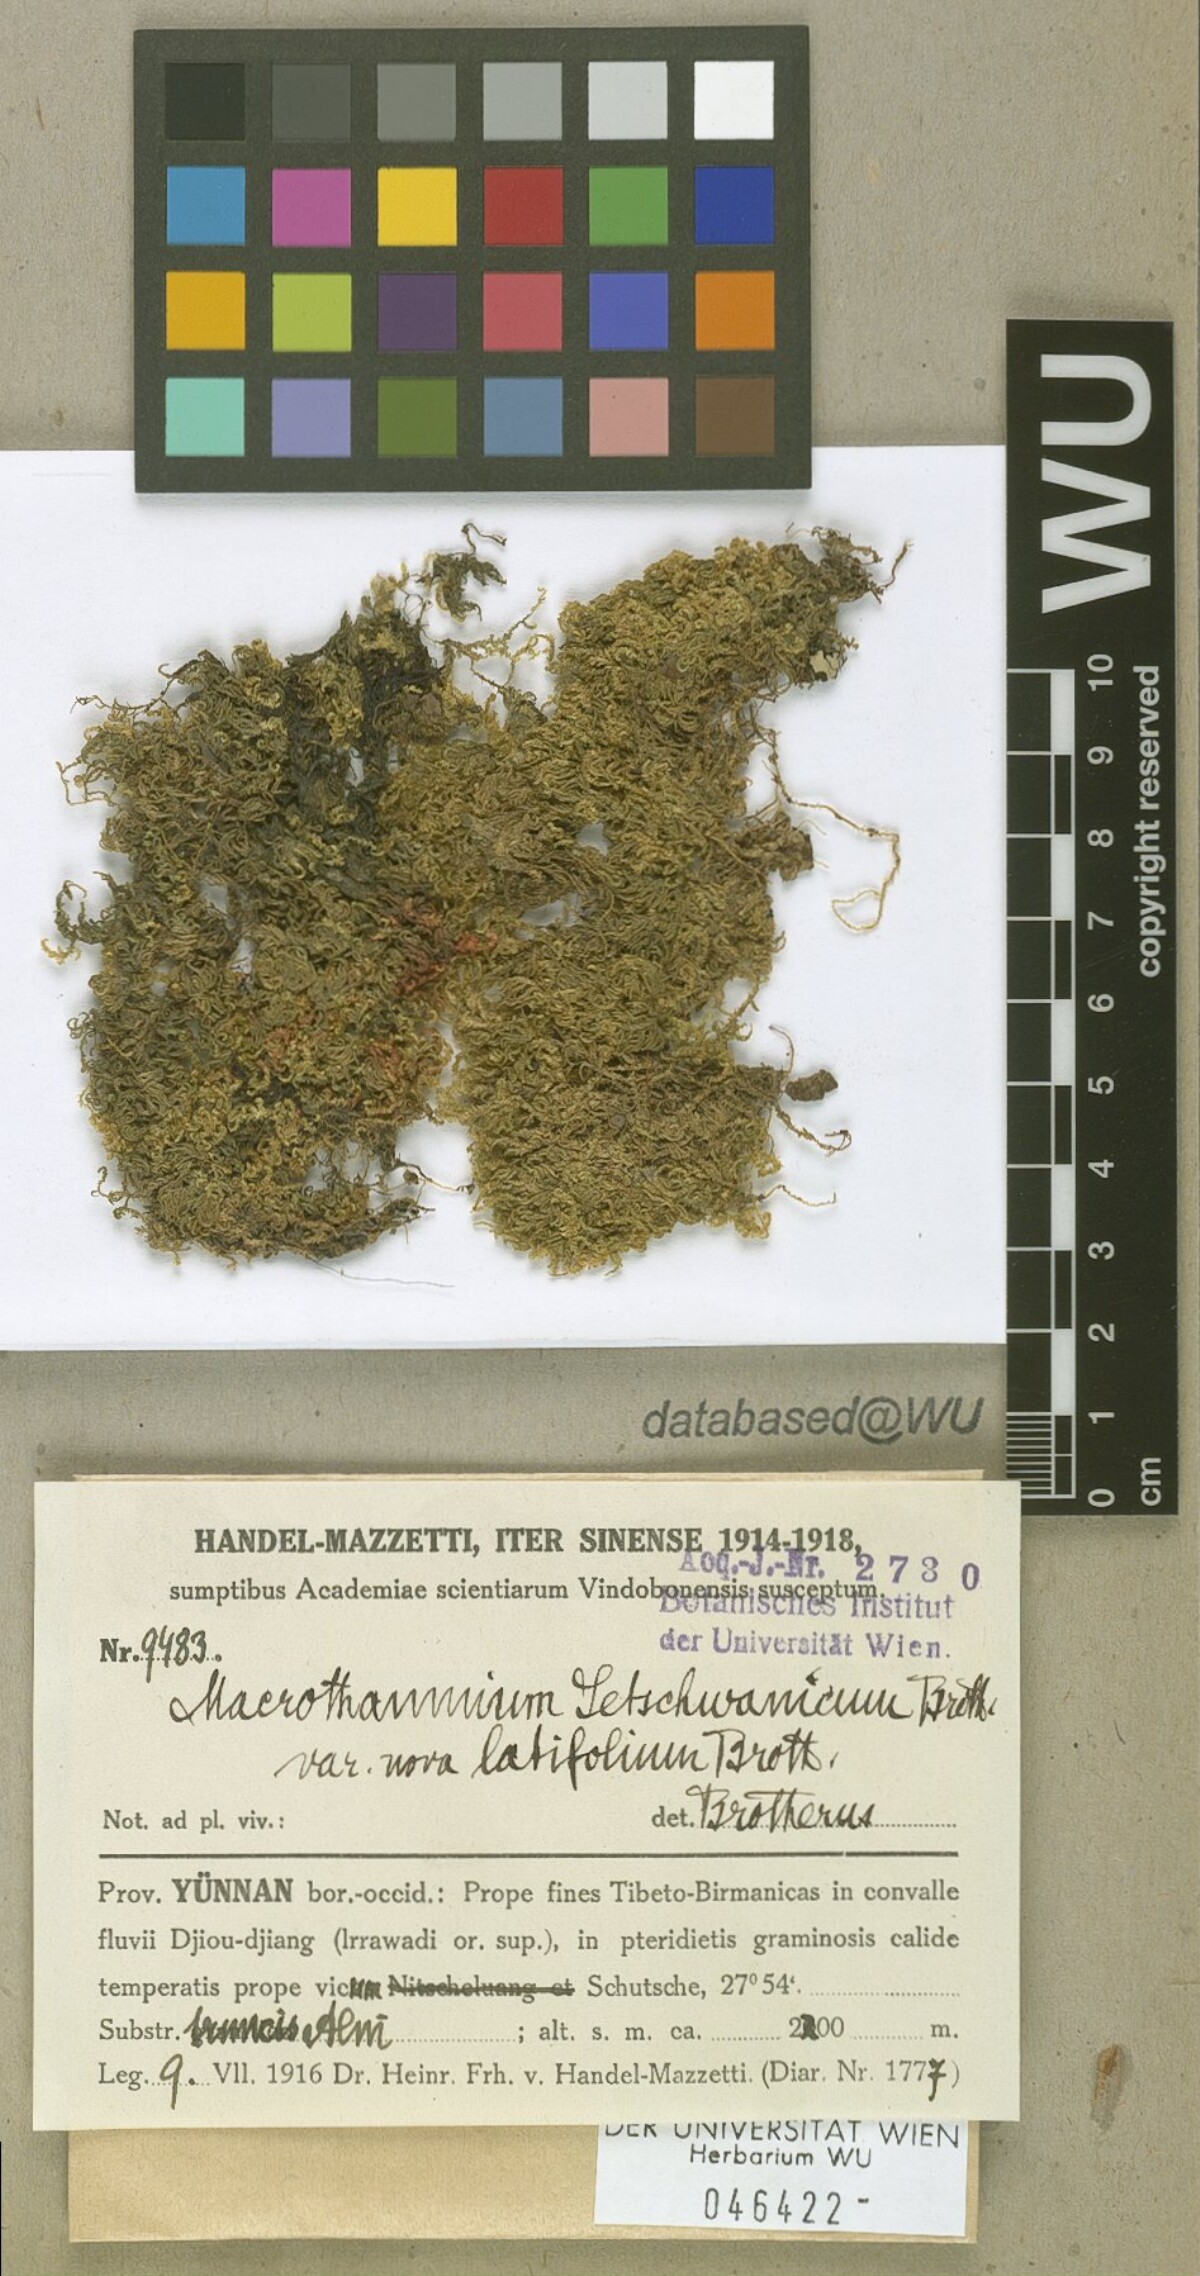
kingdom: Plantae
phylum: Bryophyta
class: Bryopsida
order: Hypnales
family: Hypnaceae
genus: Gollania
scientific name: Gollania setschwanica
